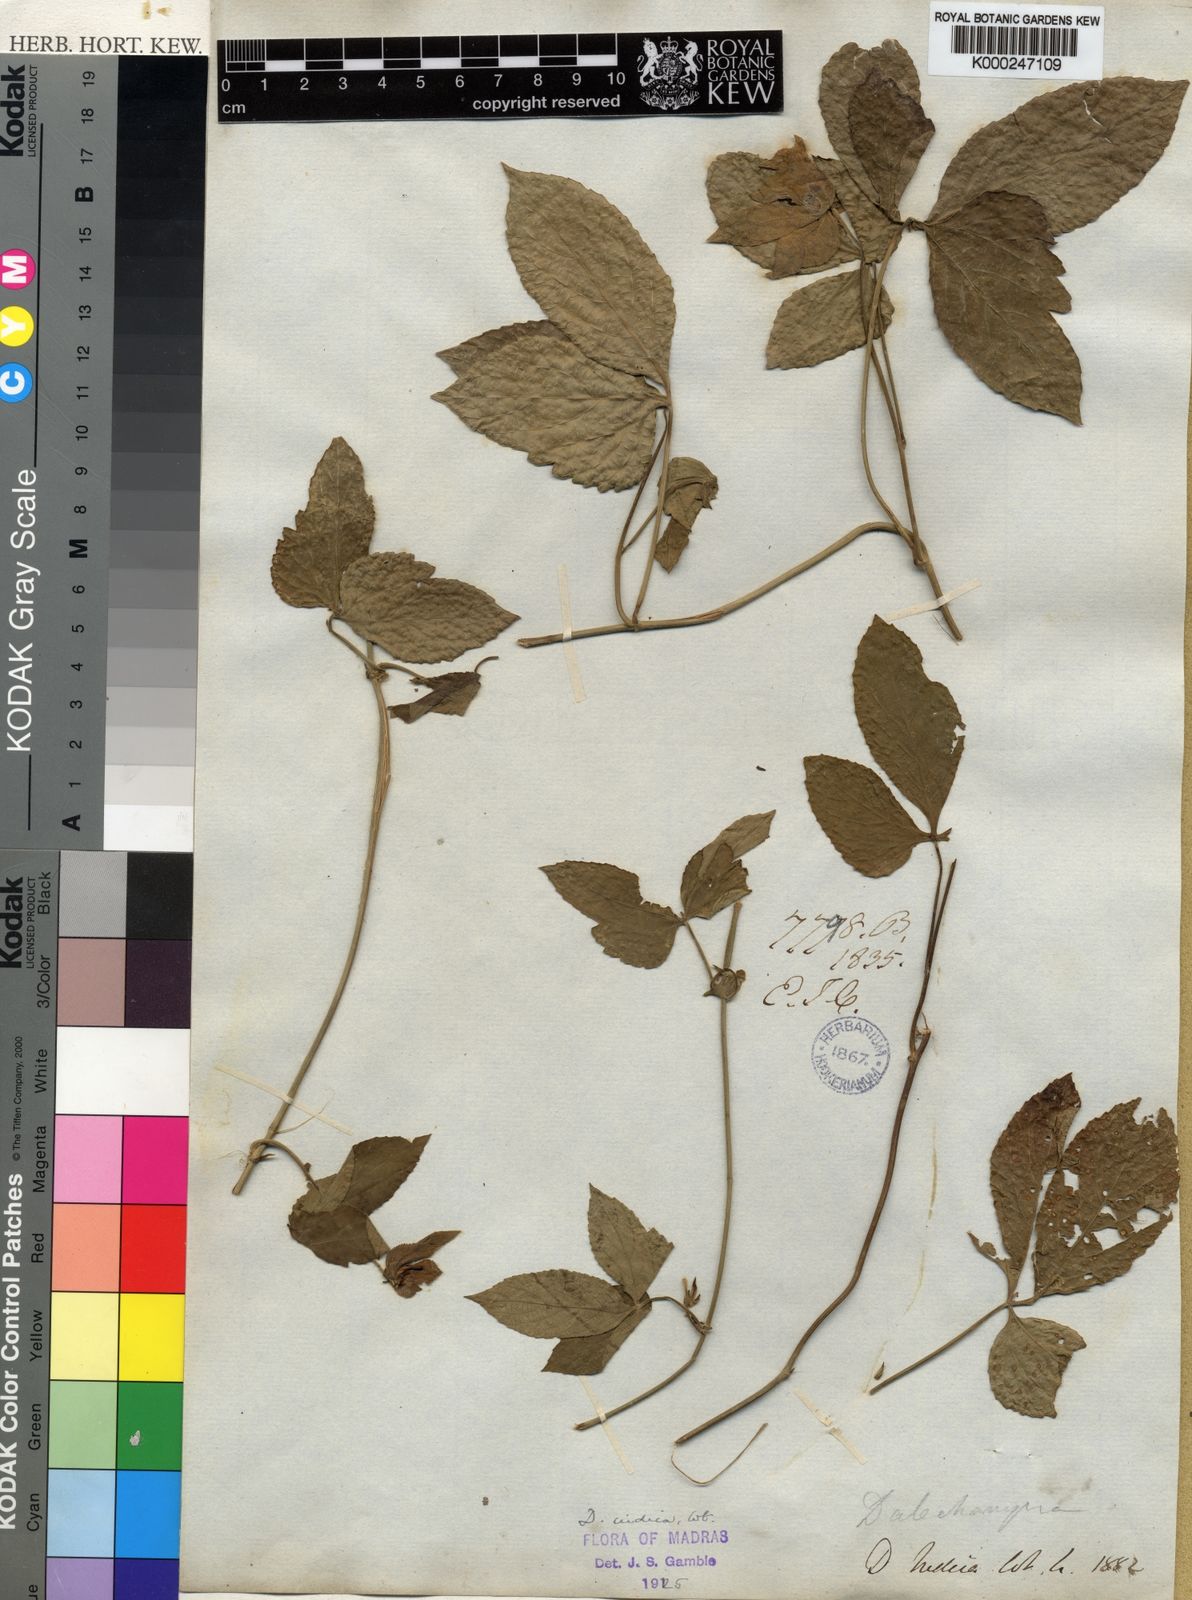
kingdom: Plantae
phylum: Tracheophyta
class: Magnoliopsida
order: Malpighiales
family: Euphorbiaceae
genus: Dalechampia
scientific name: Dalechampia indica
